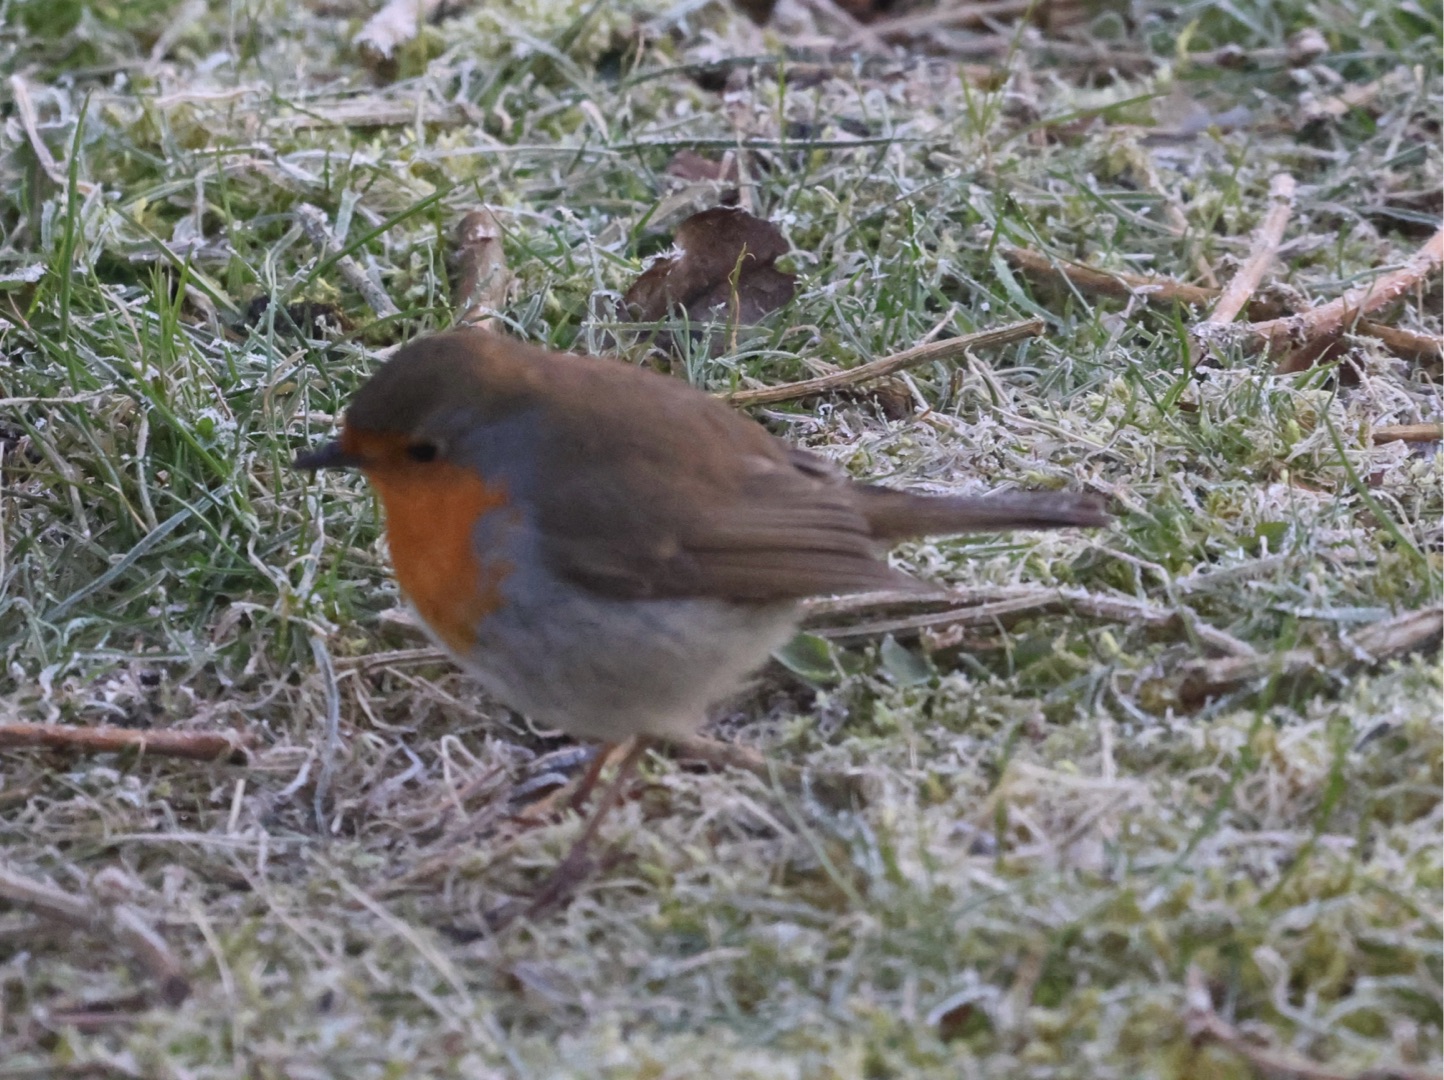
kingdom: Animalia
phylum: Chordata
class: Aves
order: Passeriformes
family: Muscicapidae
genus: Erithacus
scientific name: Erithacus rubecula
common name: Rødhals/rødkælk
